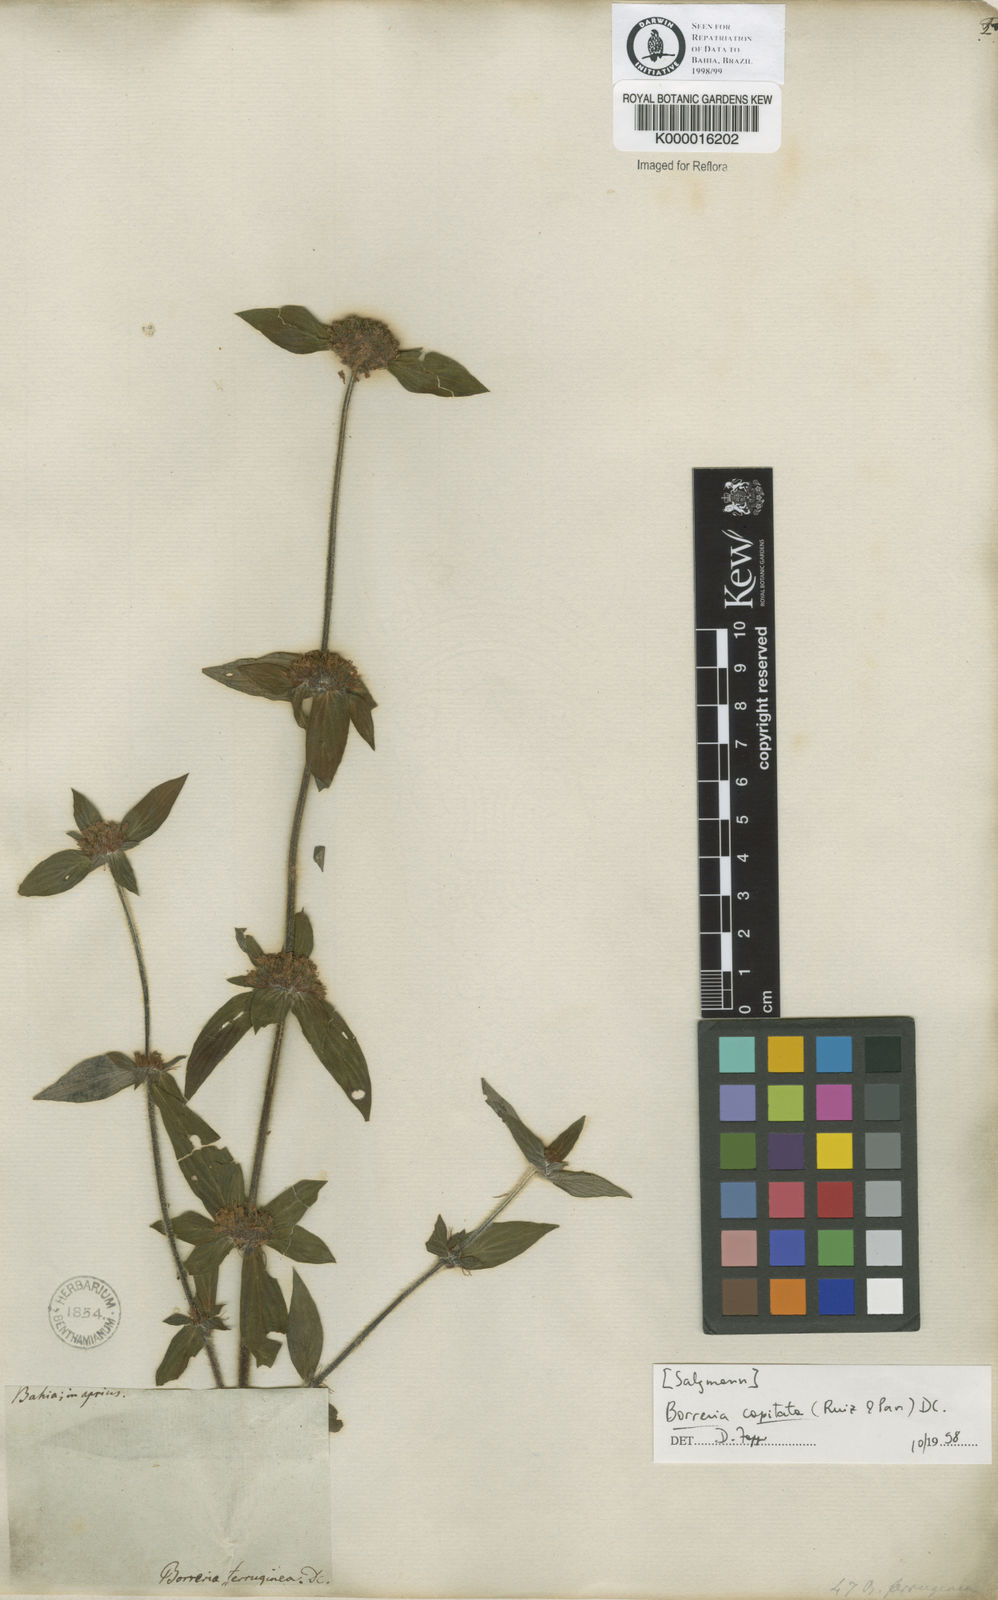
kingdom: Plantae
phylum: Tracheophyta
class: Magnoliopsida
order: Gentianales
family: Rubiaceae
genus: Spermacoce
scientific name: Spermacoce capitata
